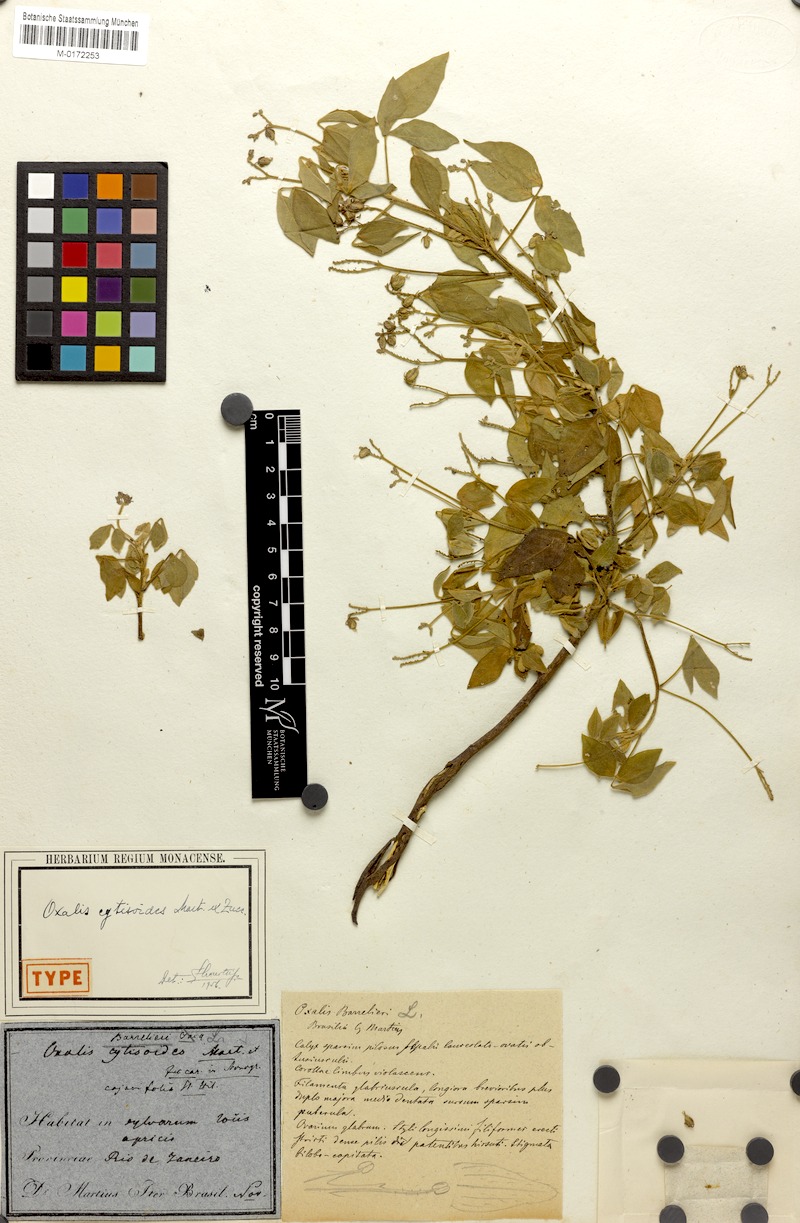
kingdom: Plantae
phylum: Tracheophyta
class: Magnoliopsida
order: Oxalidales
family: Oxalidaceae
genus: Oxalis
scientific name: Oxalis cytisoides
